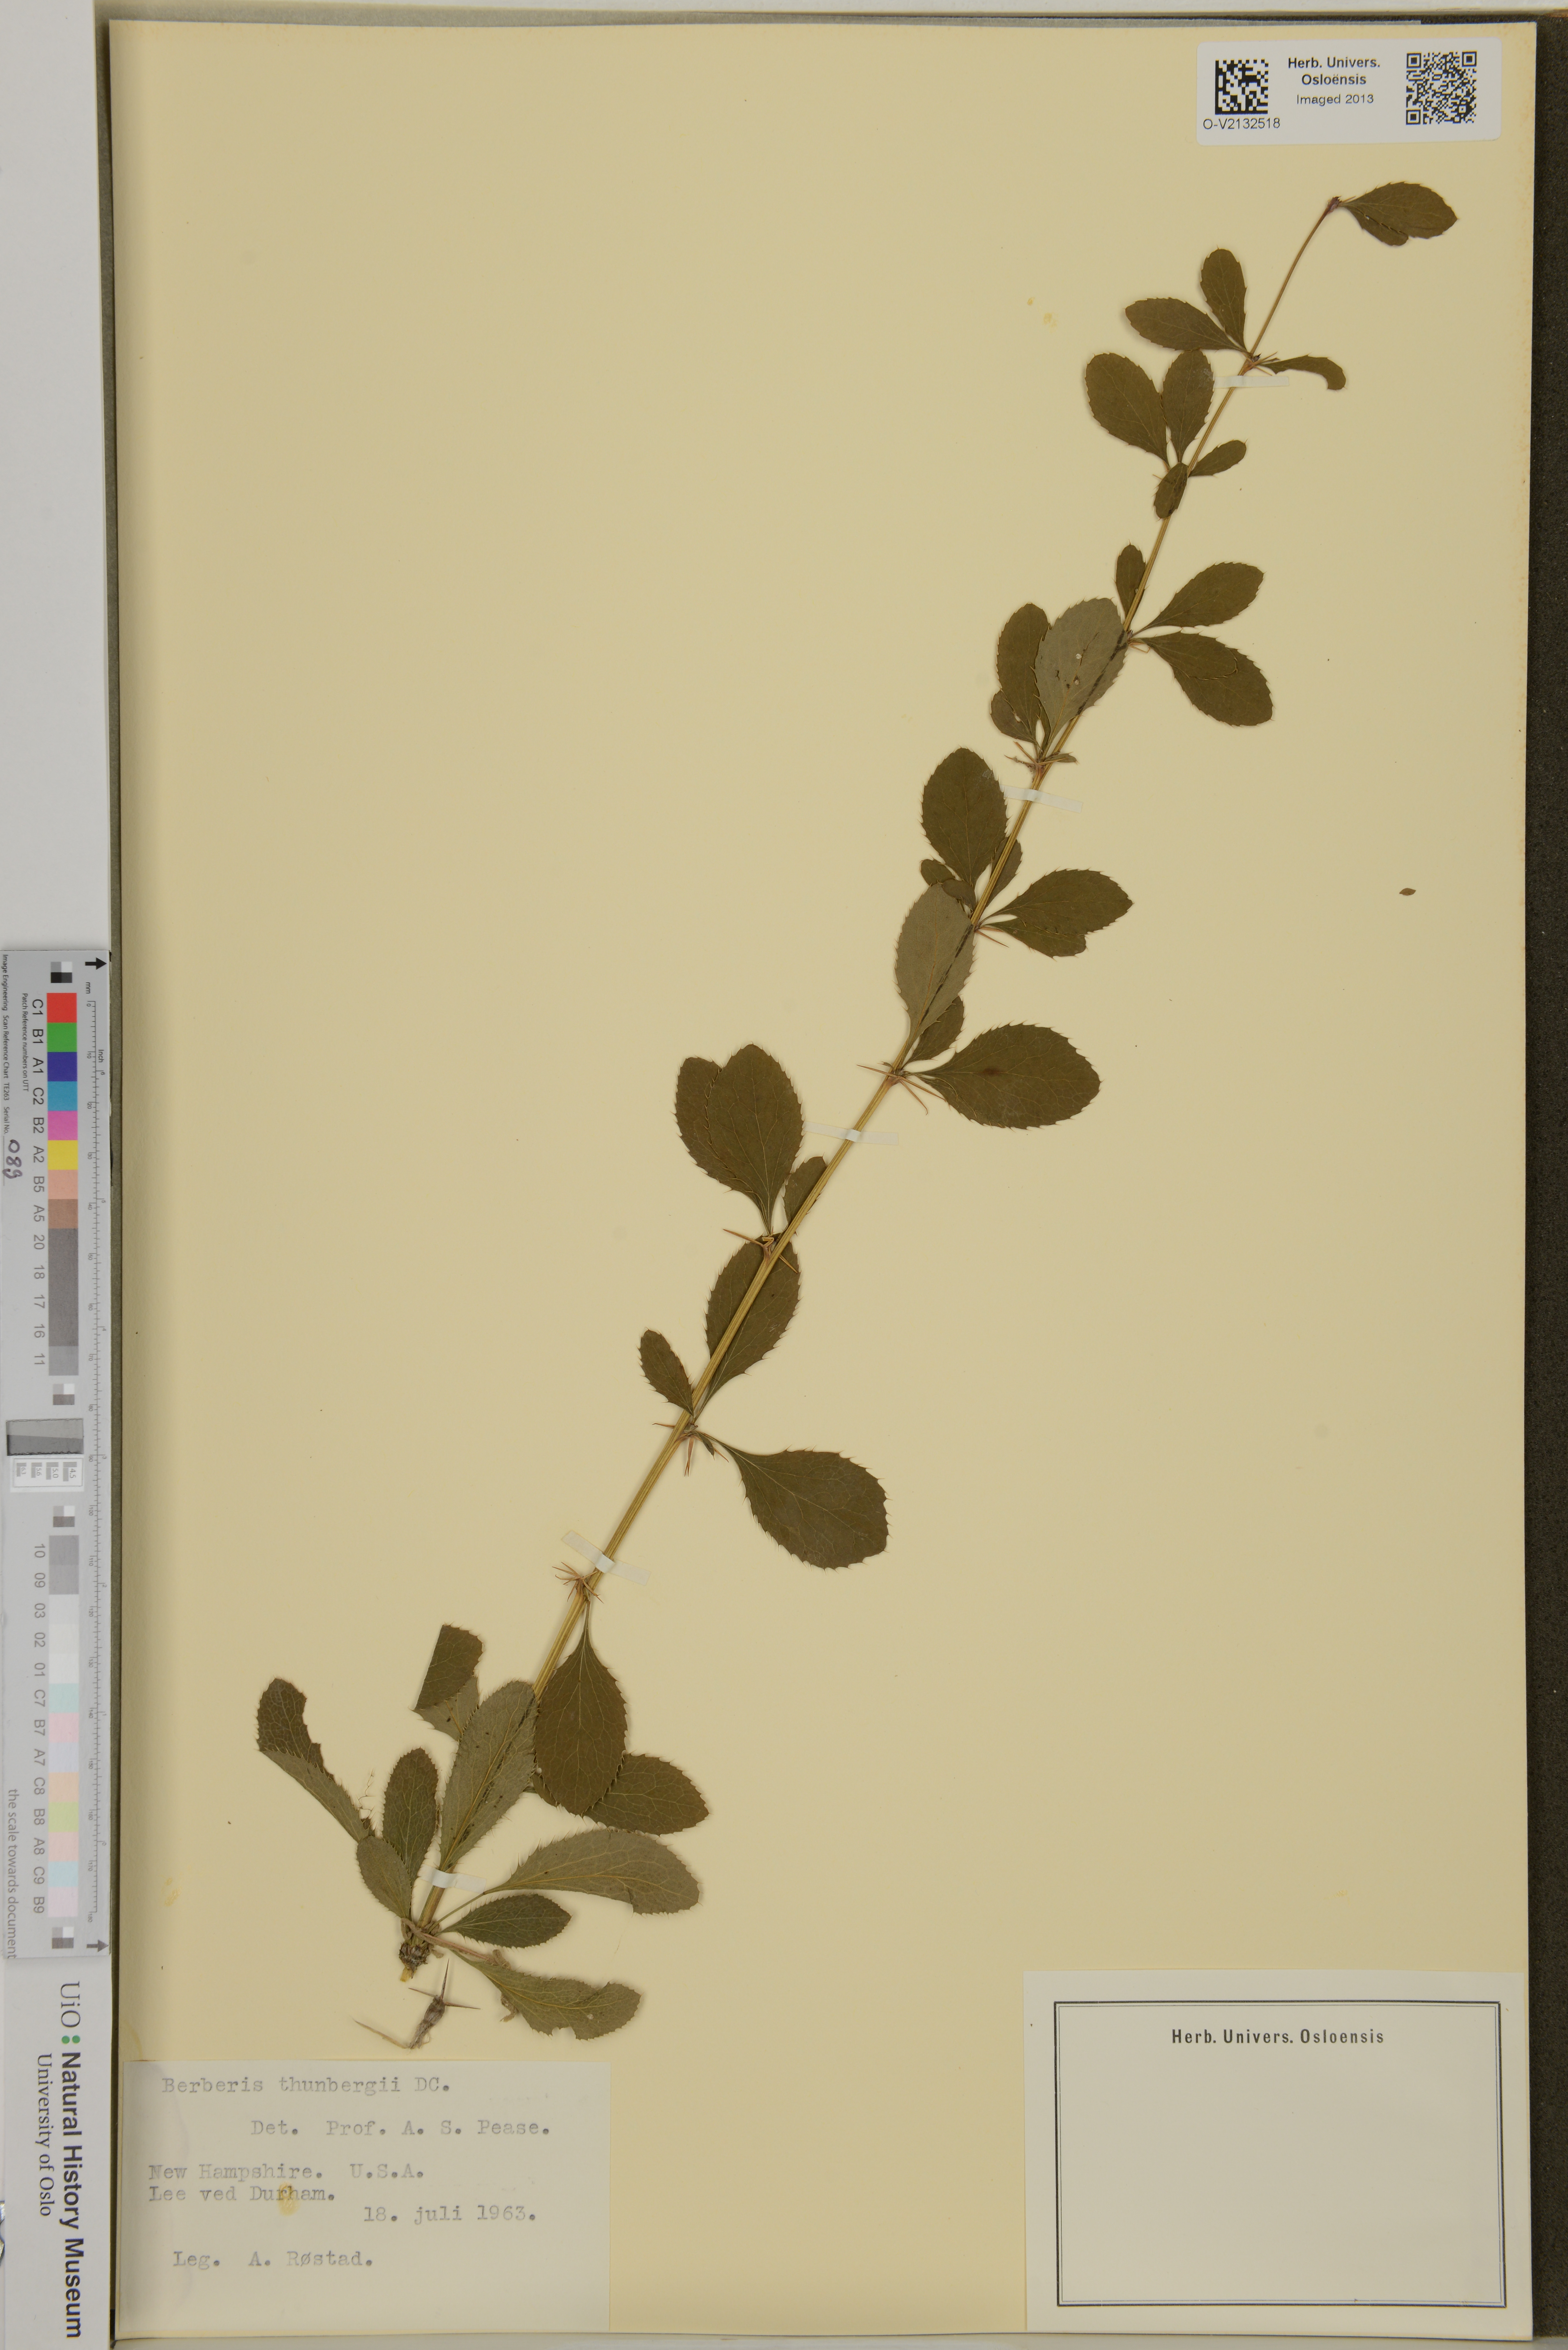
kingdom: Plantae
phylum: Tracheophyta
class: Magnoliopsida
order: Ranunculales
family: Berberidaceae
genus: Berberis
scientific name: Berberis thunbergii
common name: Japanese barberry
